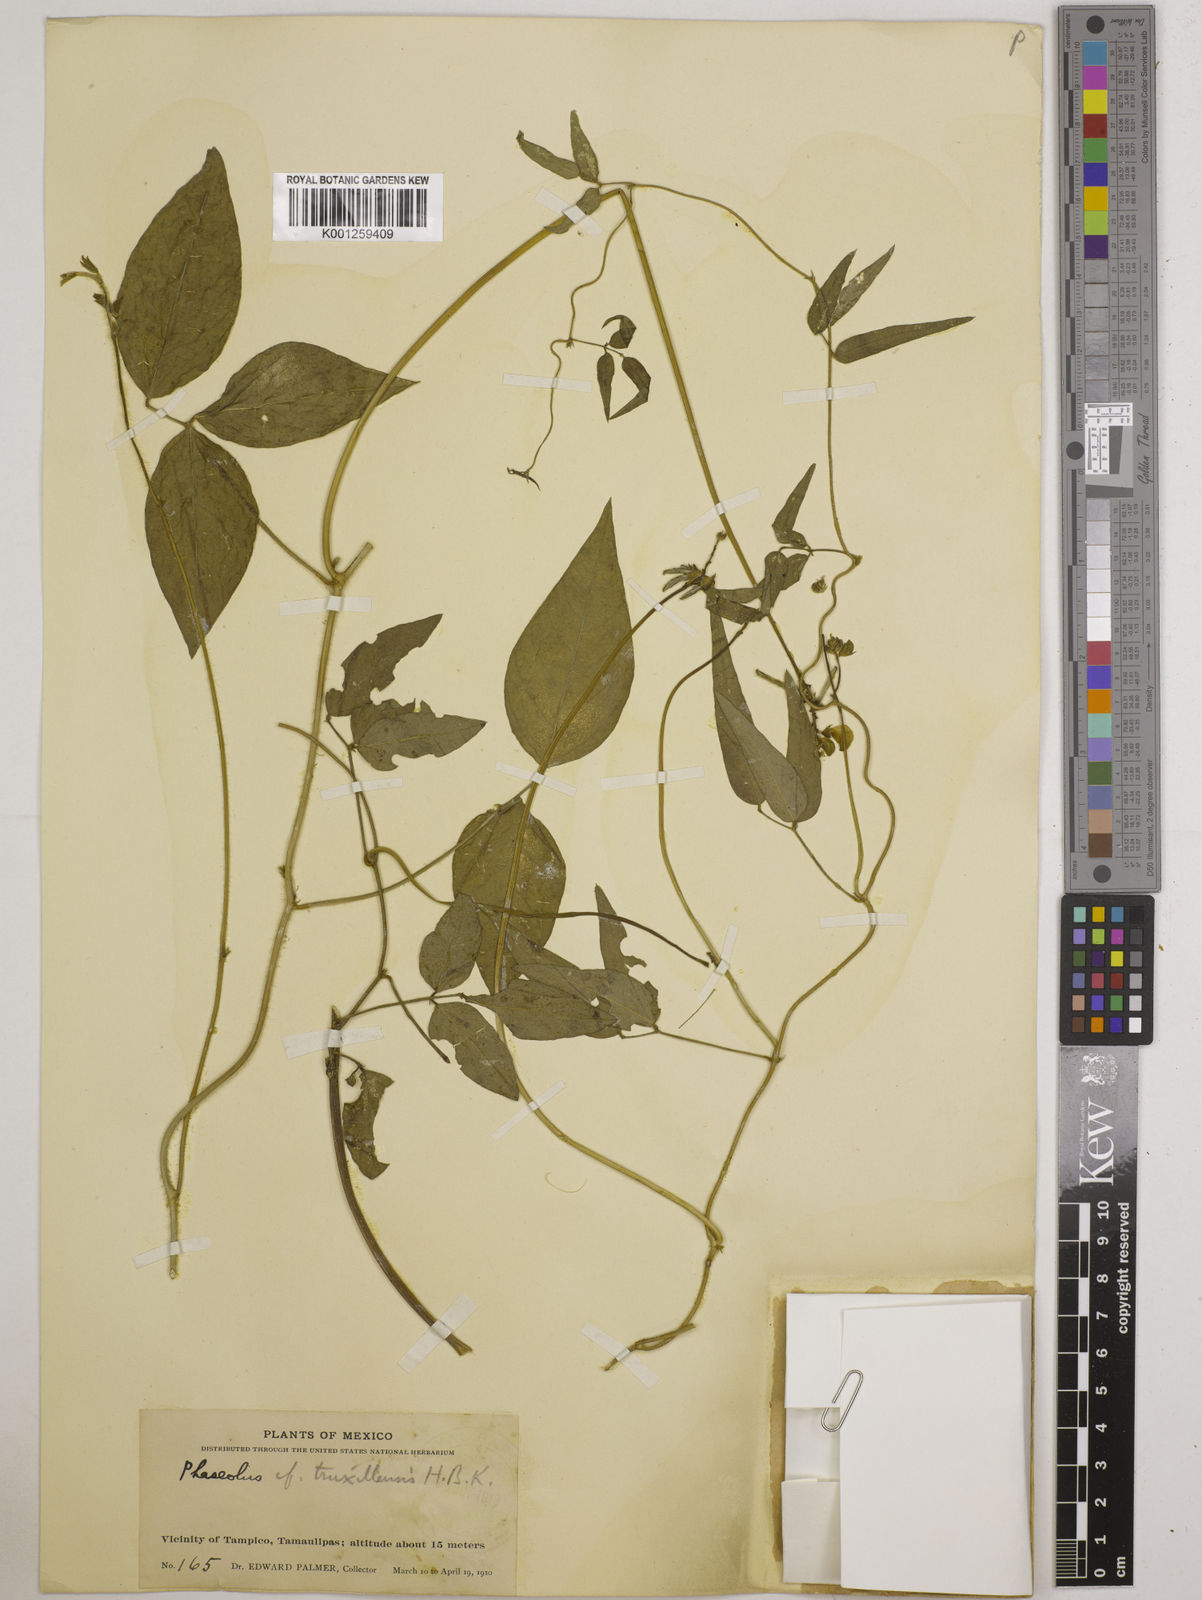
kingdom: Plantae
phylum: Tracheophyta
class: Magnoliopsida
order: Fabales
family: Fabaceae
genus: Vigna
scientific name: Vigna luteola
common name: Hairypod cowpea
